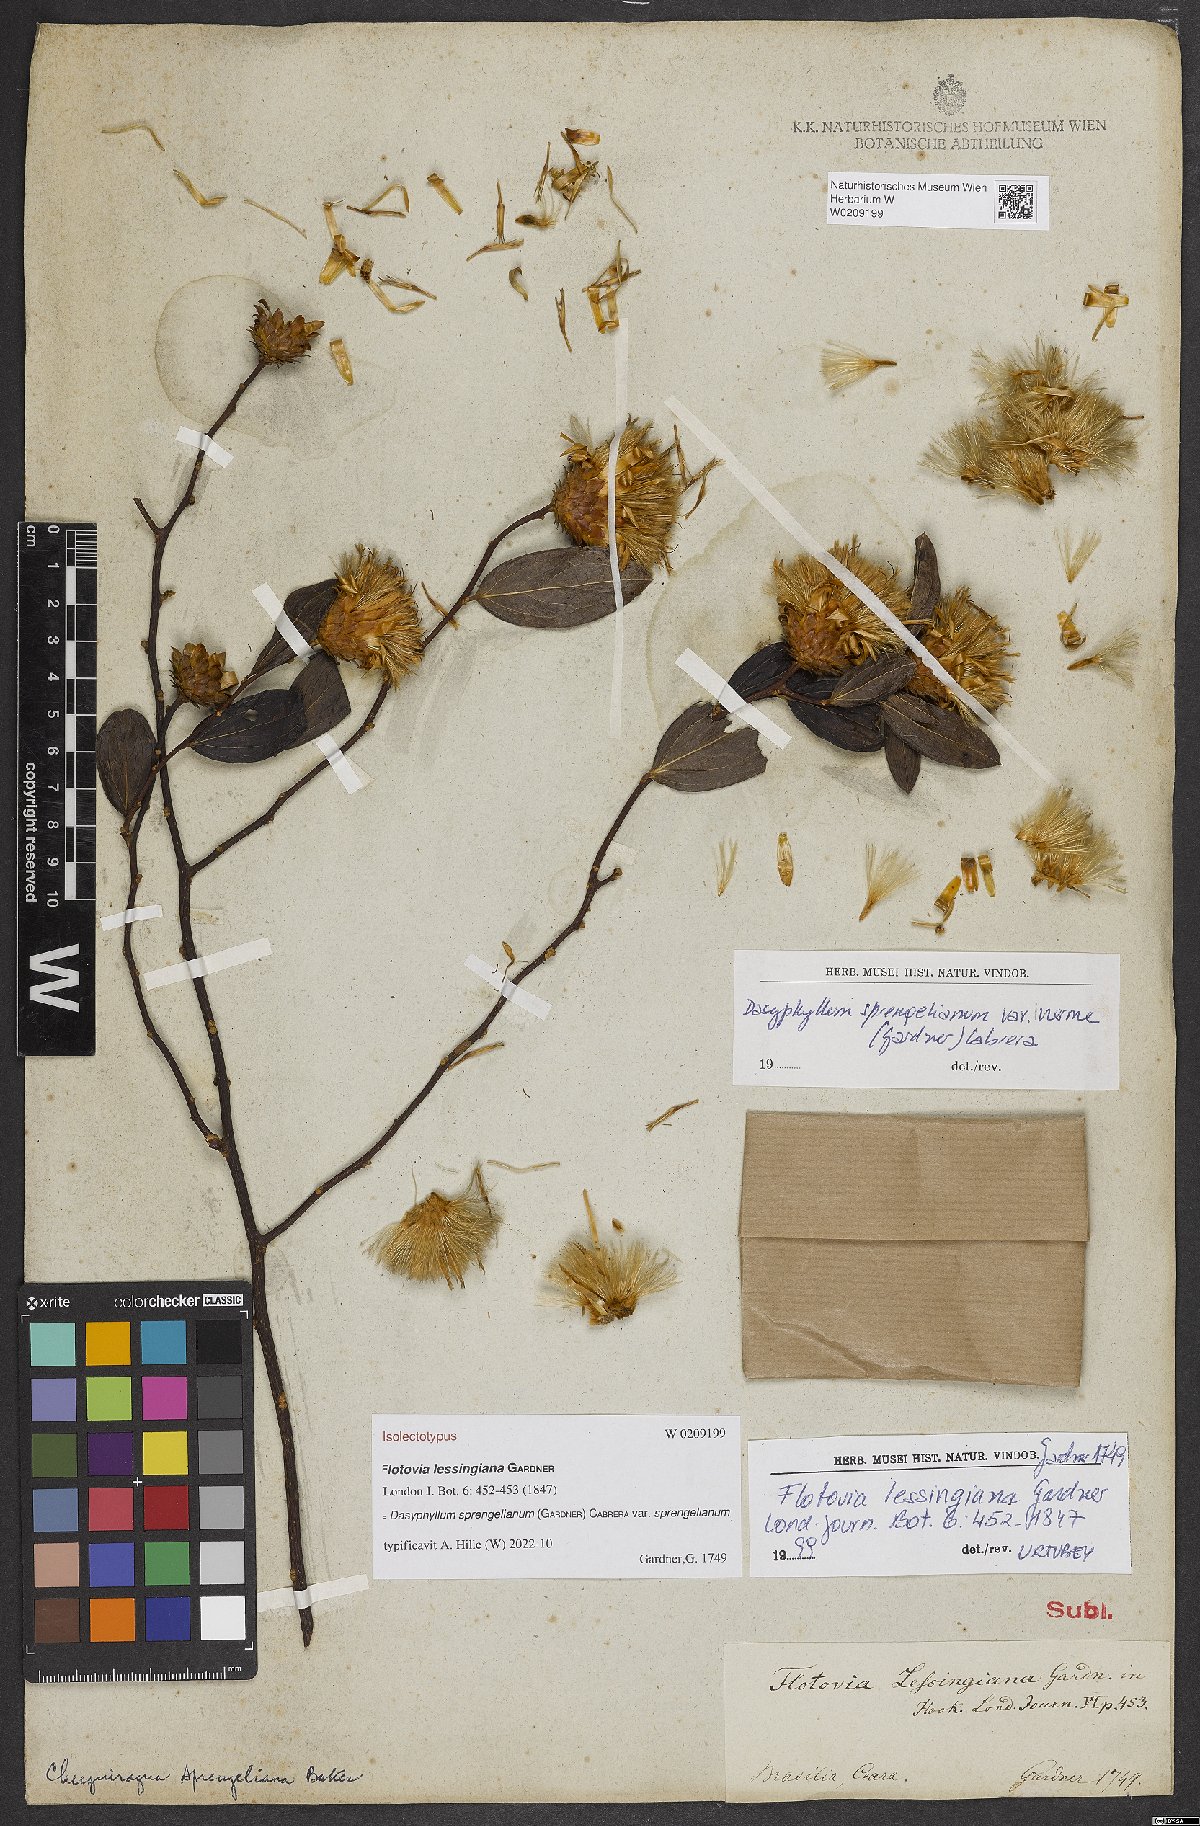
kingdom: Plantae
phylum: Tracheophyta
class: Magnoliopsida
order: Asterales
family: Asteraceae
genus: Dasyphyllum
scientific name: Dasyphyllum sprengelianum
